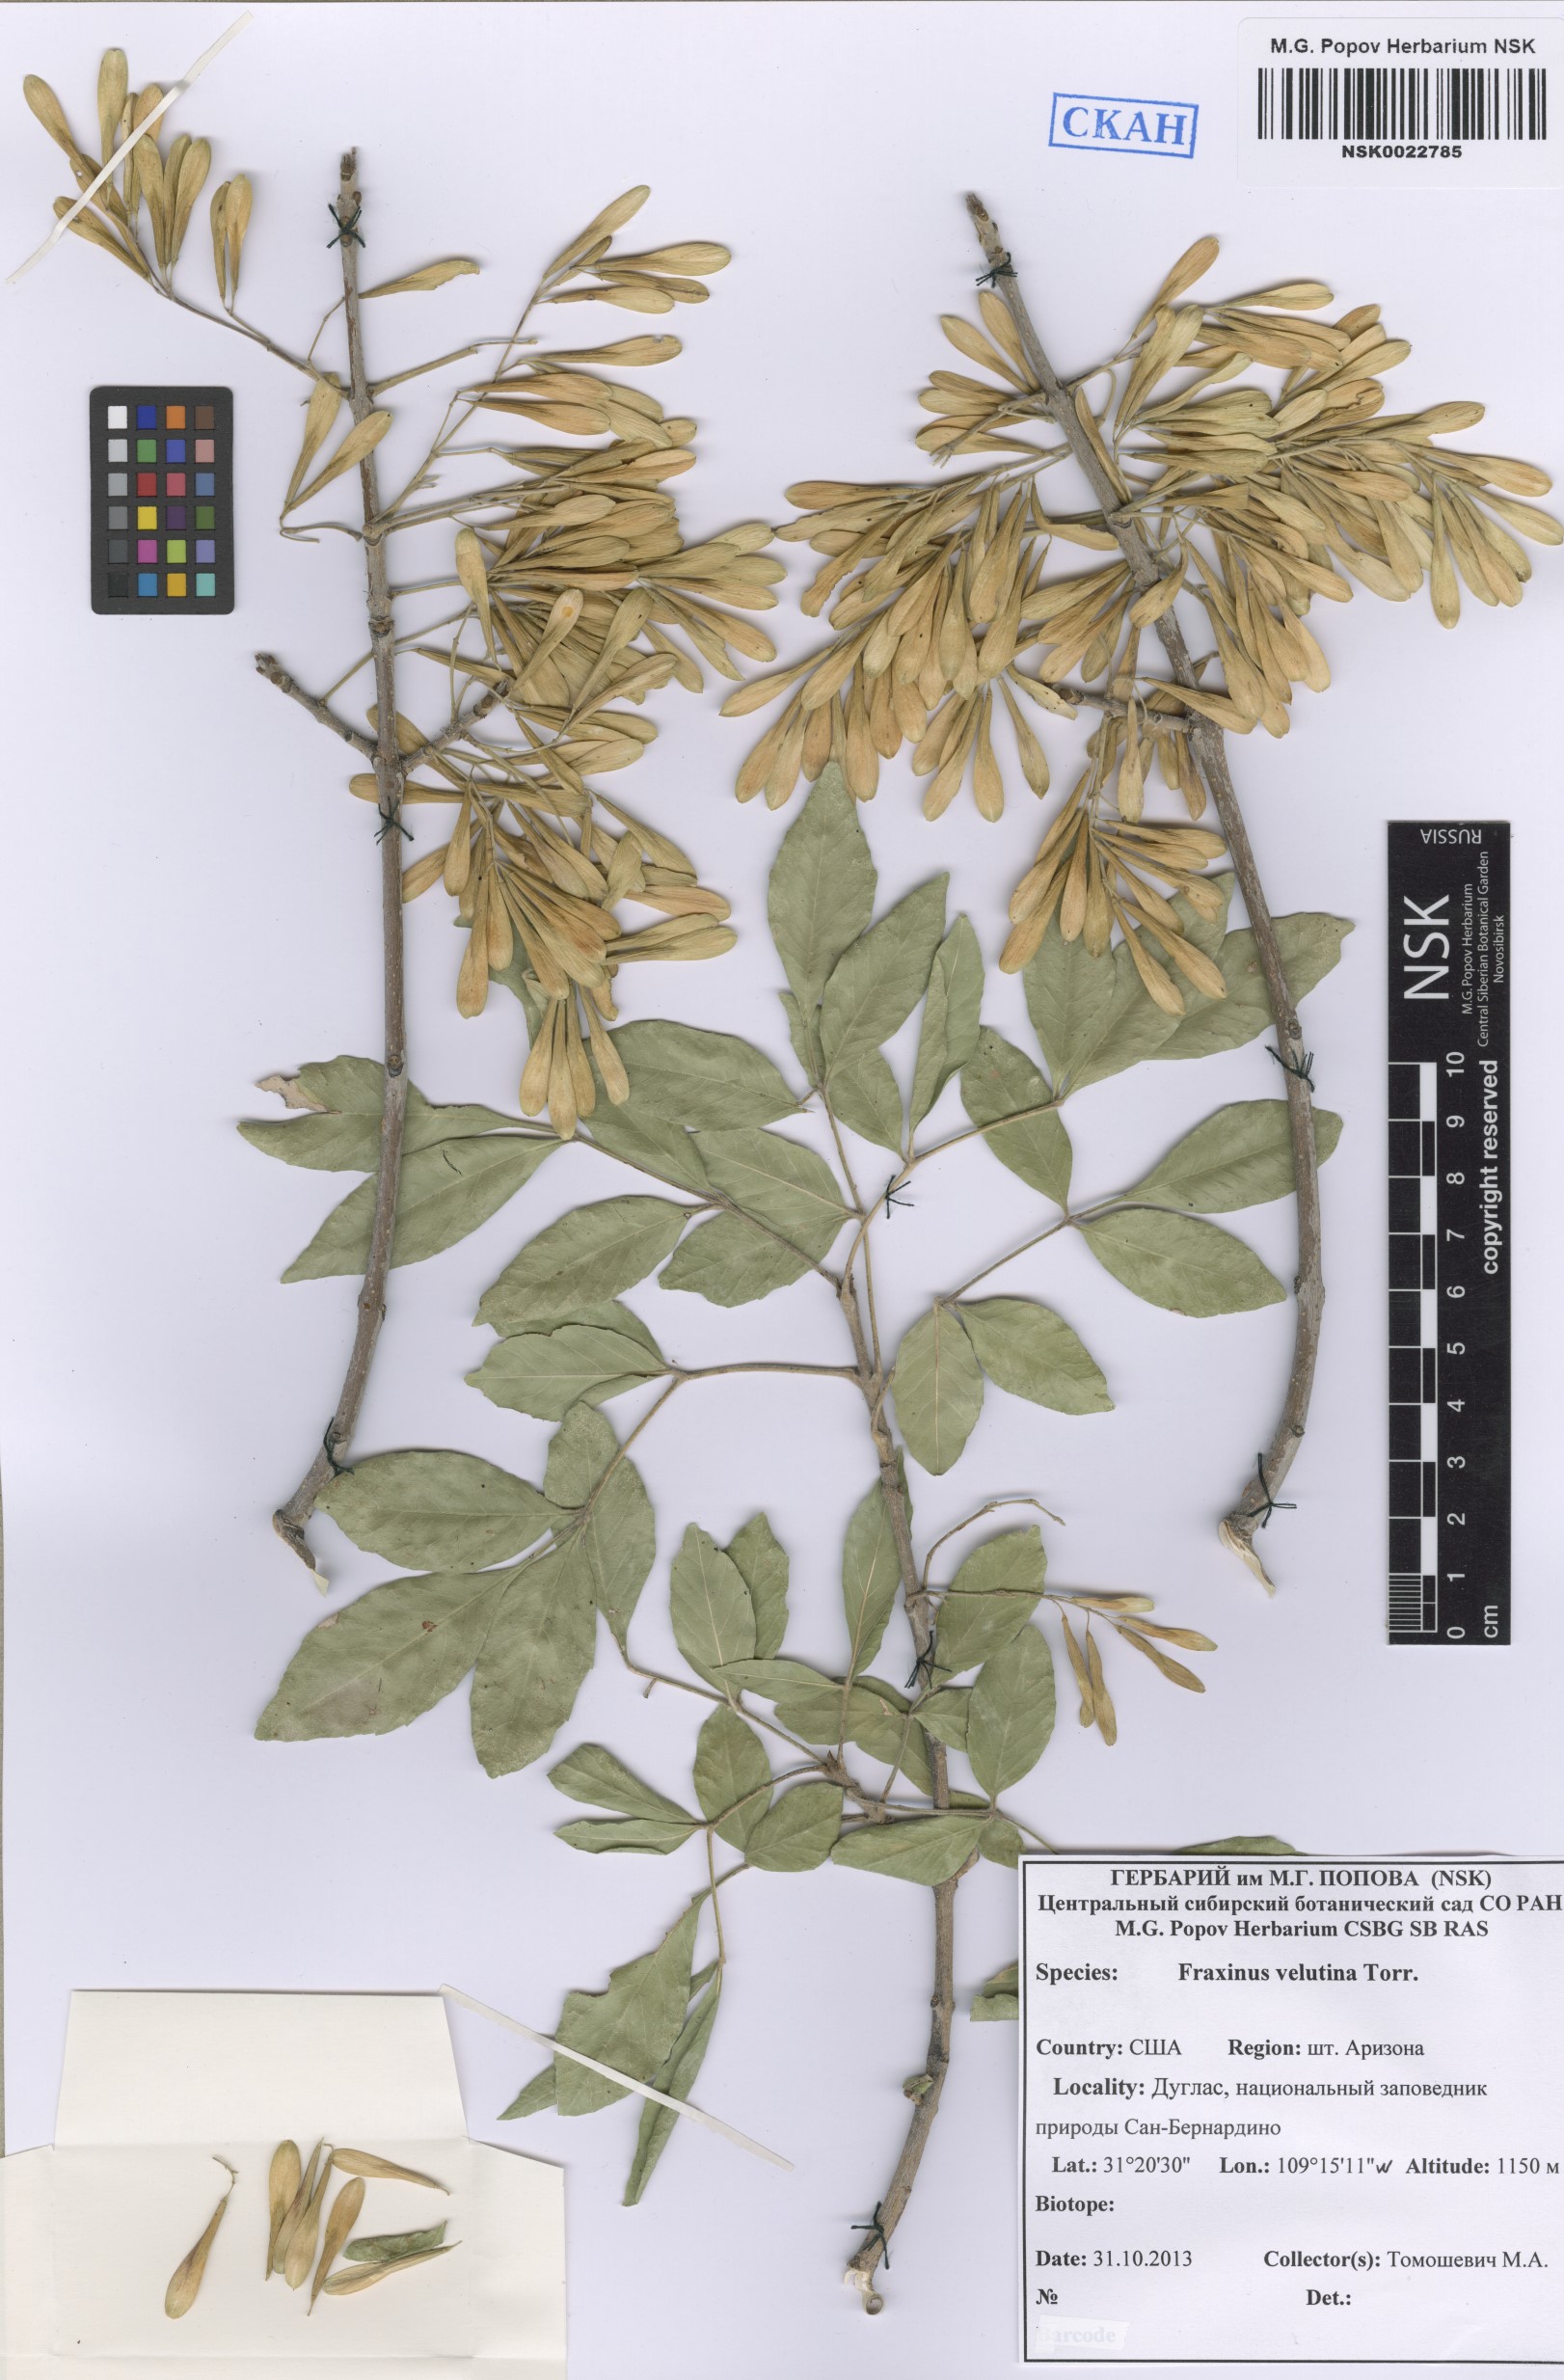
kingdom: Plantae
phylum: Tracheophyta
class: Magnoliopsida
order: Lamiales
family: Oleaceae
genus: Fraxinus
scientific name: Fraxinus velutina
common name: Arizon ash
